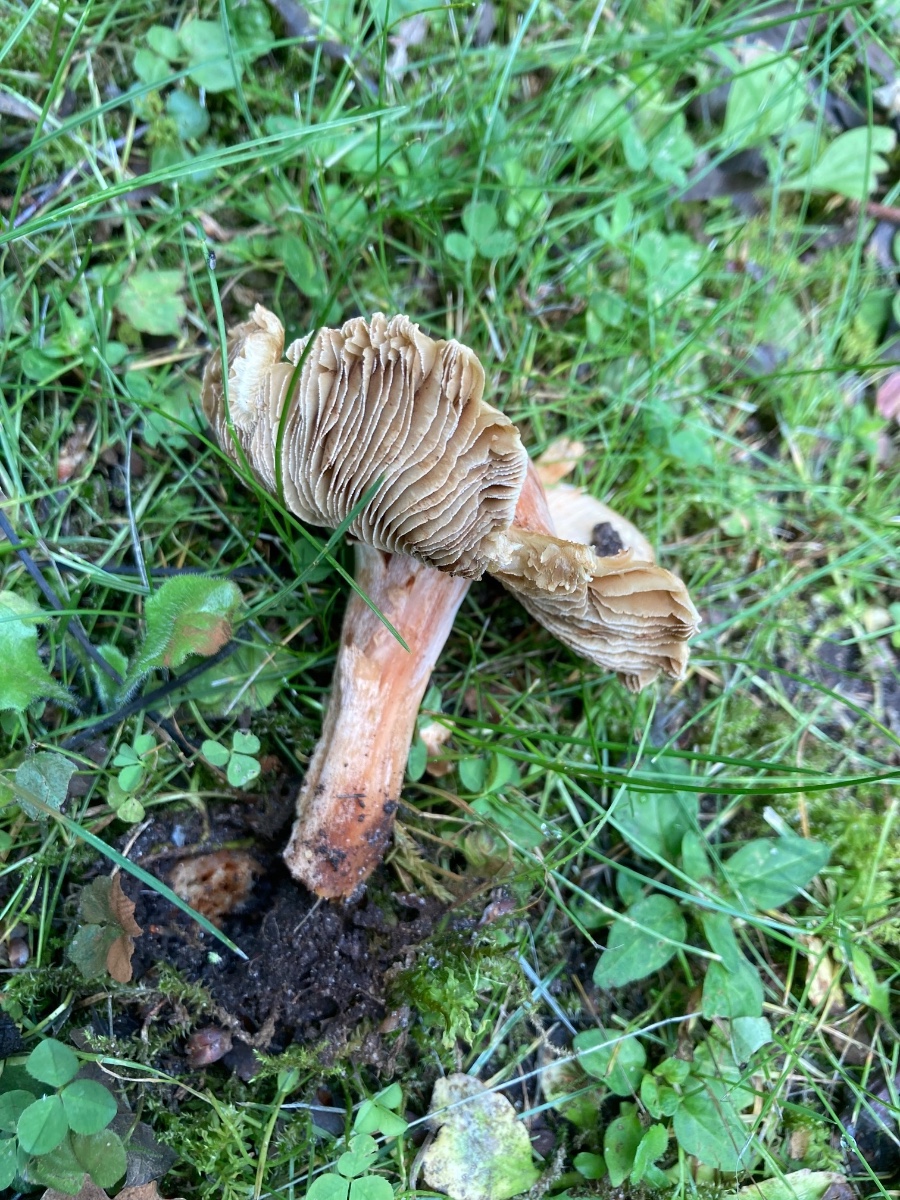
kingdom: Fungi
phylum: Basidiomycota
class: Agaricomycetes
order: Agaricales
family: Inocybaceae
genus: Inosperma
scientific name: Inosperma erubescens
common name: giftig trævlhat
